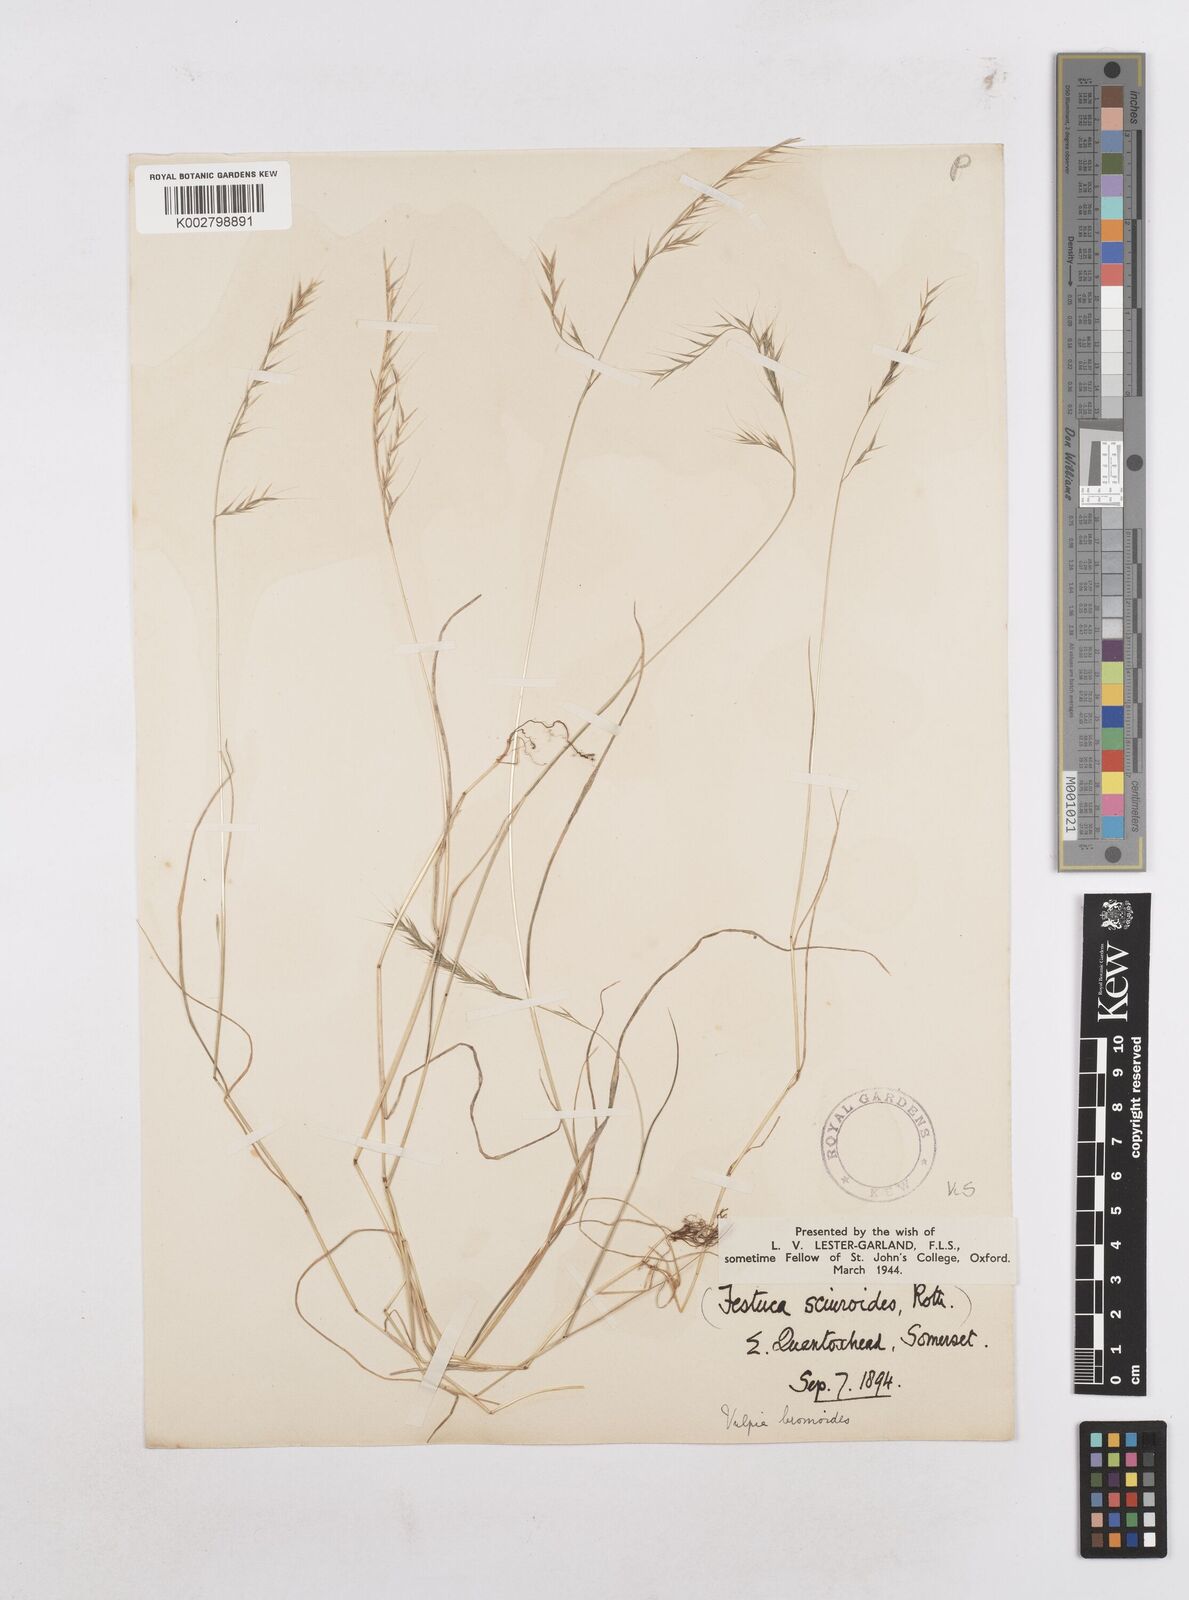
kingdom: Plantae
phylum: Tracheophyta
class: Liliopsida
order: Poales
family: Poaceae
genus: Festuca
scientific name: Festuca
